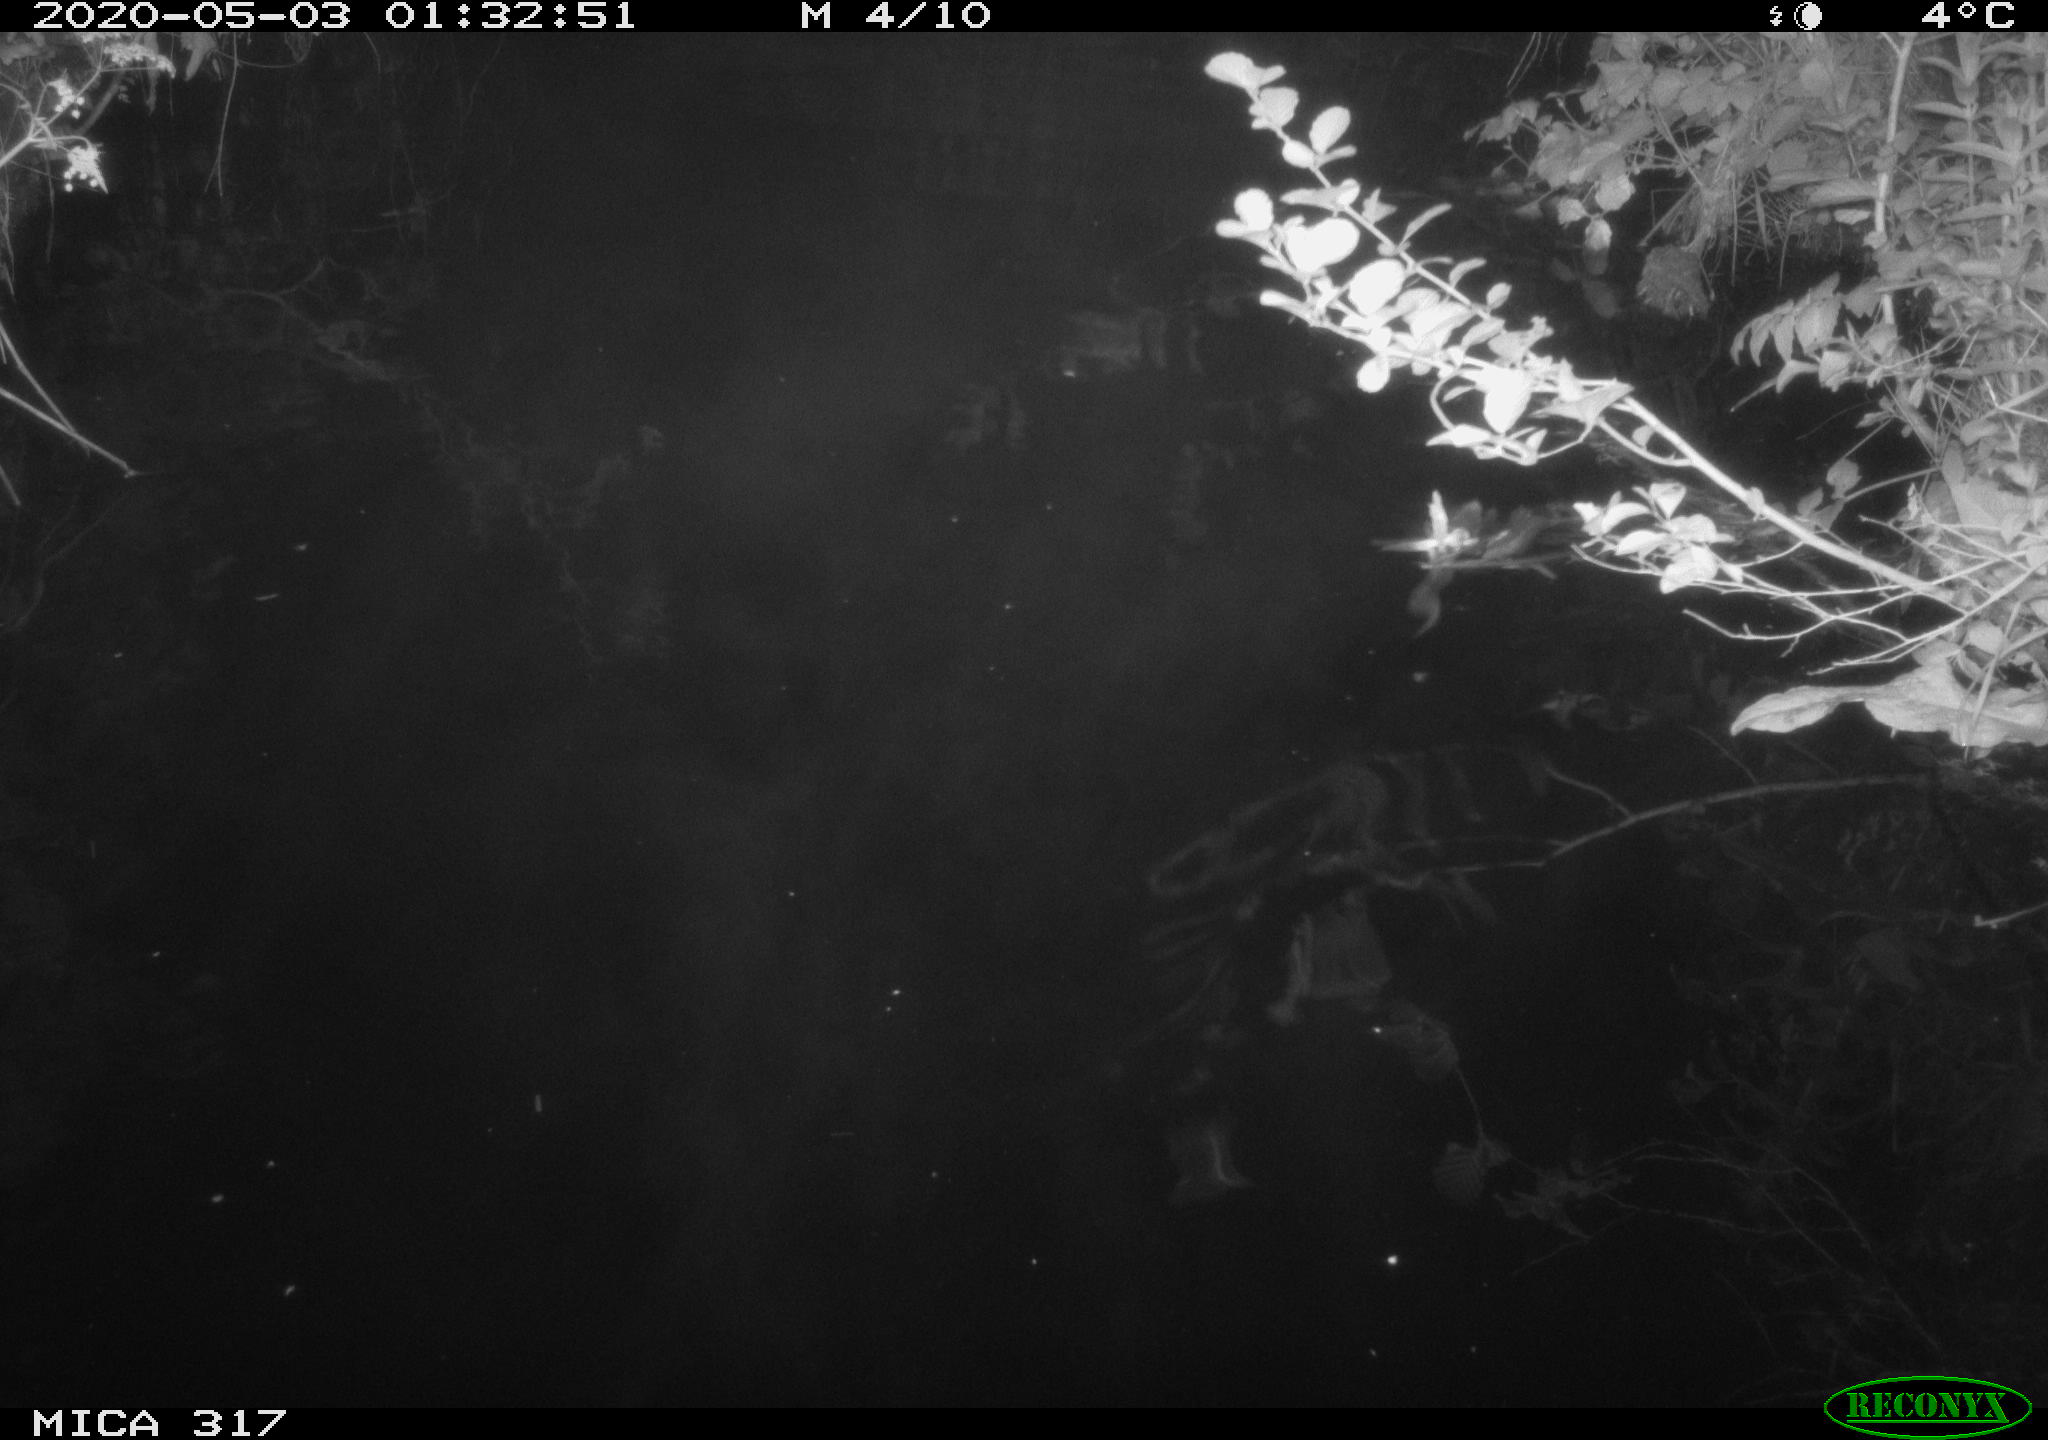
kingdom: Animalia
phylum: Chordata
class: Aves
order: Anseriformes
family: Anatidae
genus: Anas
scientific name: Anas platyrhynchos
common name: Mallard
